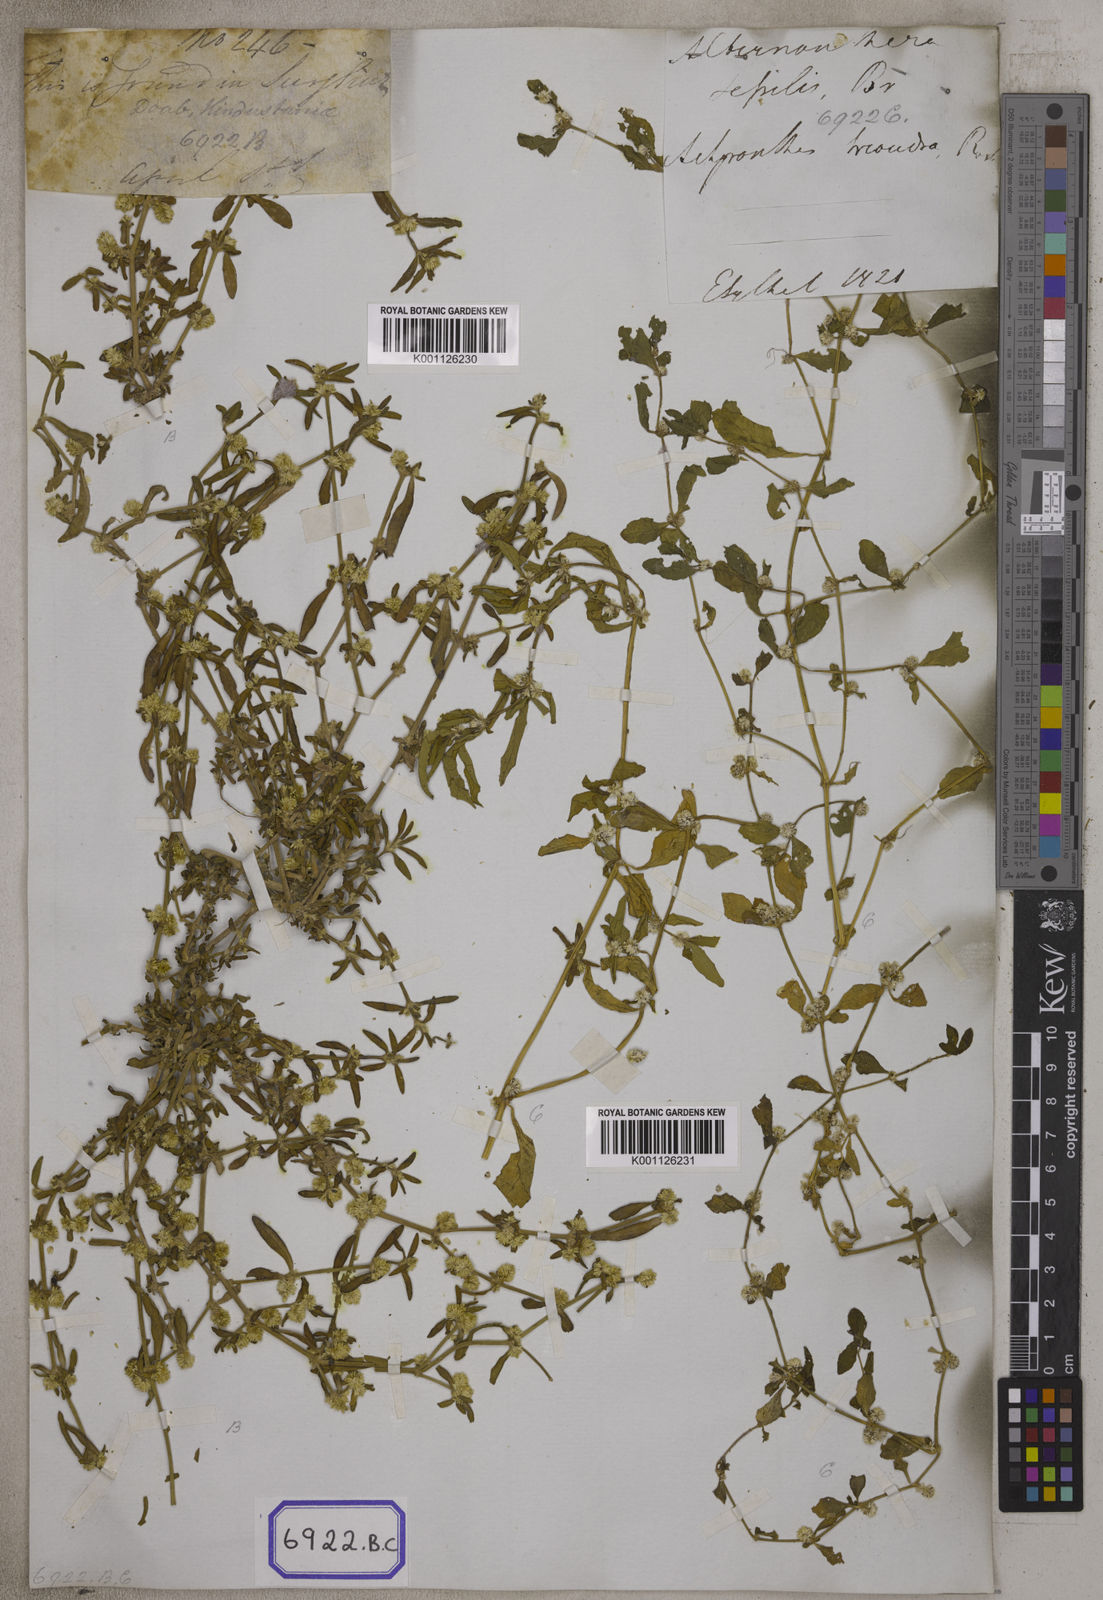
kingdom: Plantae
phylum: Tracheophyta
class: Magnoliopsida
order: Caryophyllales
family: Amaranthaceae
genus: Alternanthera
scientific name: Alternanthera
